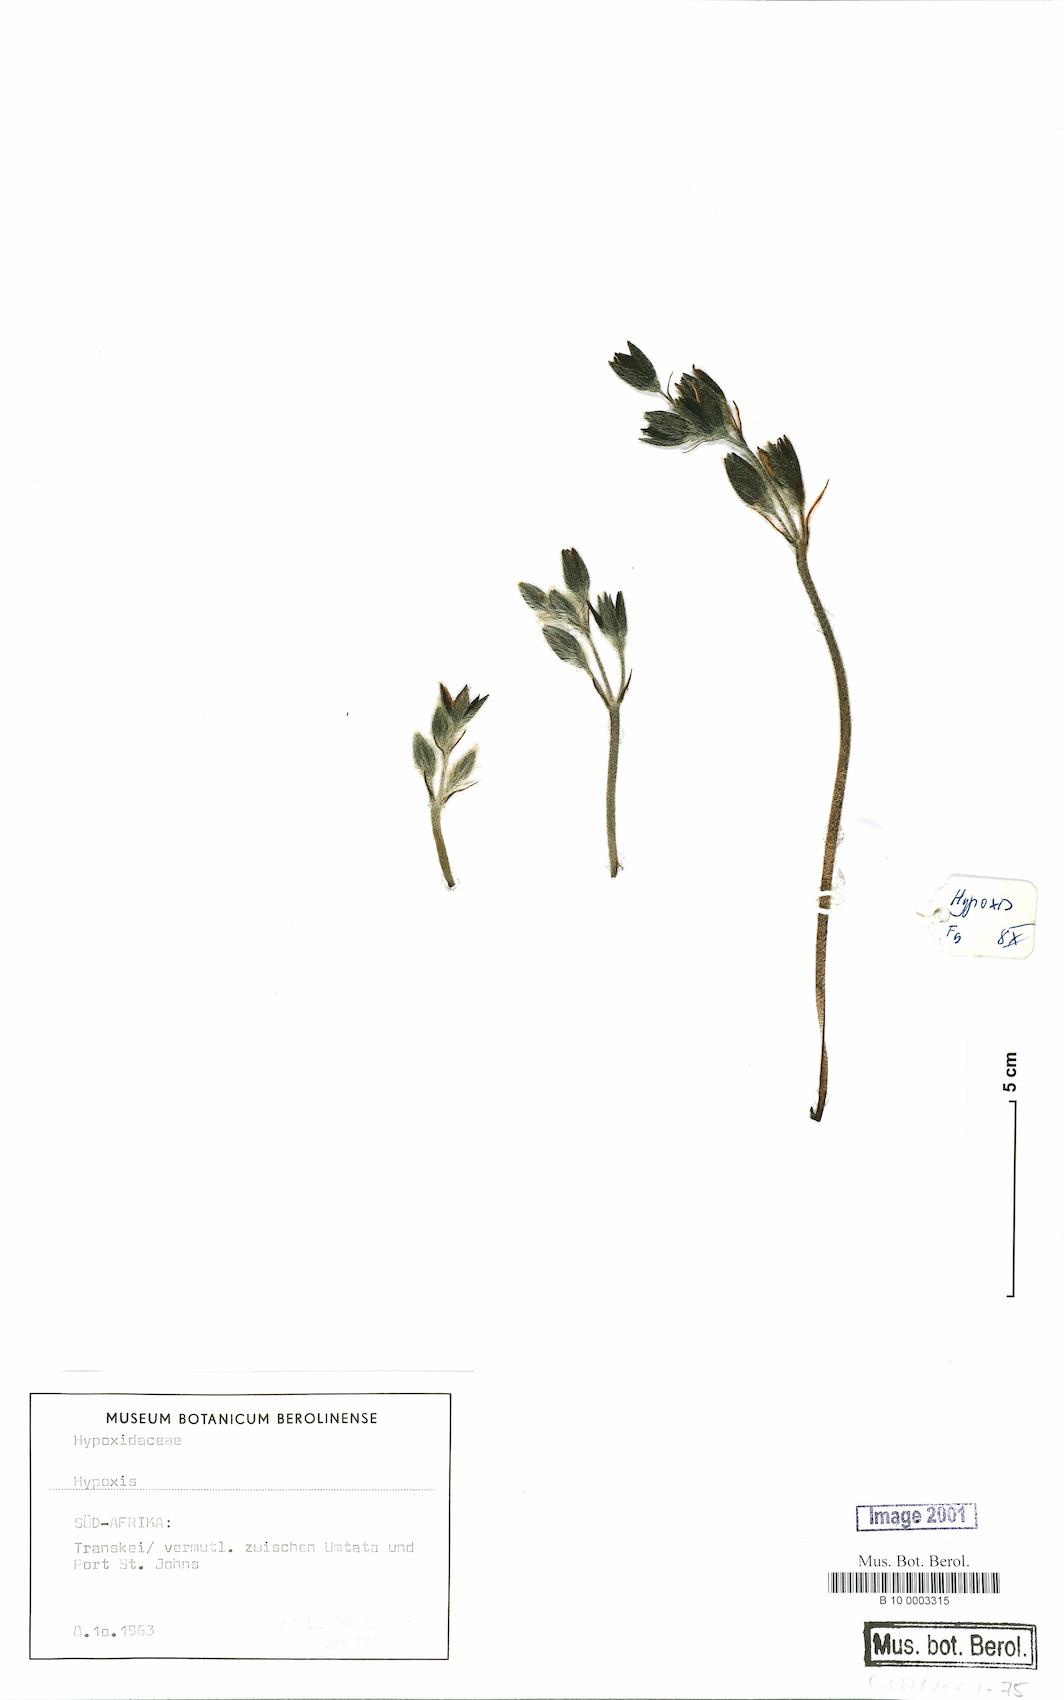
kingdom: Plantae
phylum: Tracheophyta
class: Liliopsida
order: Asparagales
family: Hypoxidaceae
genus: Hypoxis
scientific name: Hypoxis
